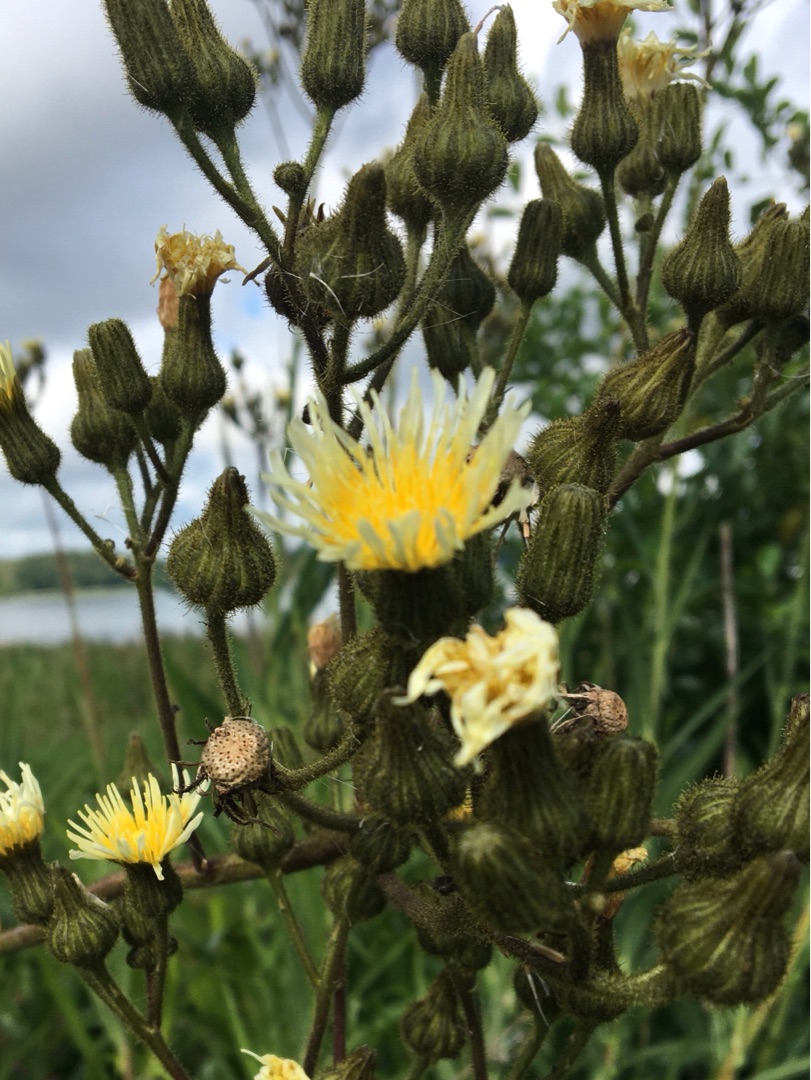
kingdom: Plantae
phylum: Tracheophyta
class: Magnoliopsida
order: Asterales
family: Asteraceae
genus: Sonchus
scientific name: Sonchus palustris
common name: Kær-svinemælk
